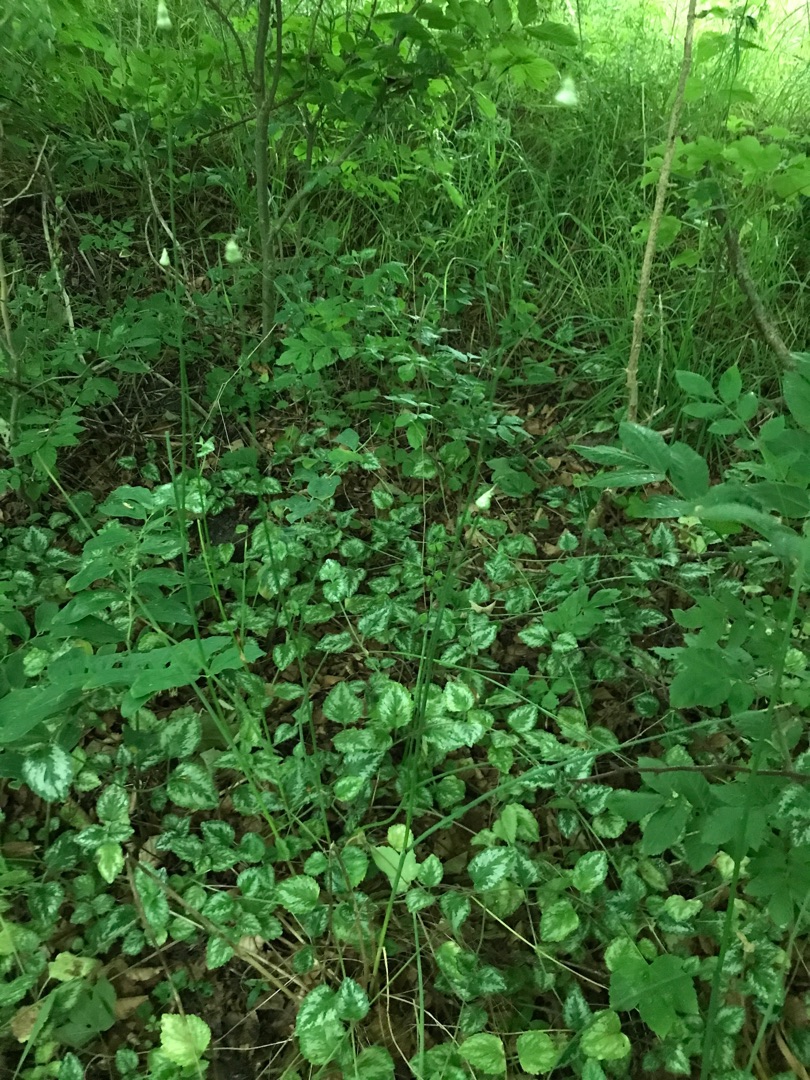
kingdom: Plantae
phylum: Tracheophyta
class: Liliopsida
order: Asparagales
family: Amaryllidaceae
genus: Allium
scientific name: Allium vineale
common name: Sand-løg
